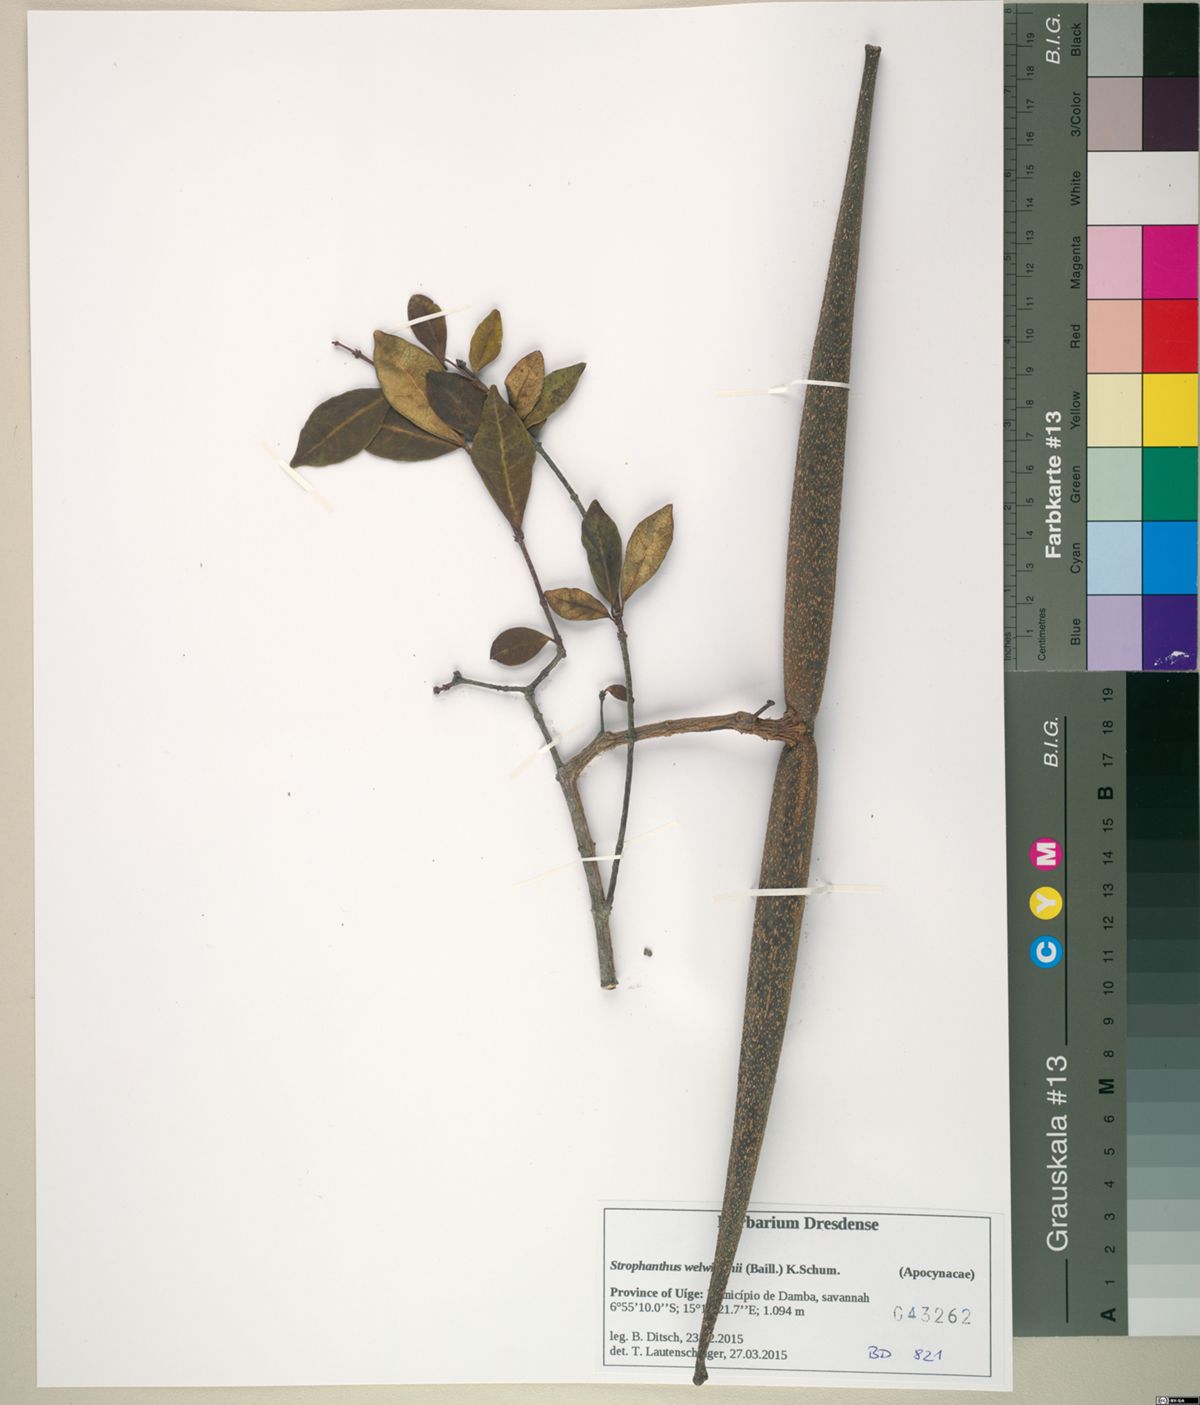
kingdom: Plantae
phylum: Tracheophyta
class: Magnoliopsida
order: Gentianales
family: Apocynaceae
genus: Strophanthus
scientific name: Strophanthus welwitschii
